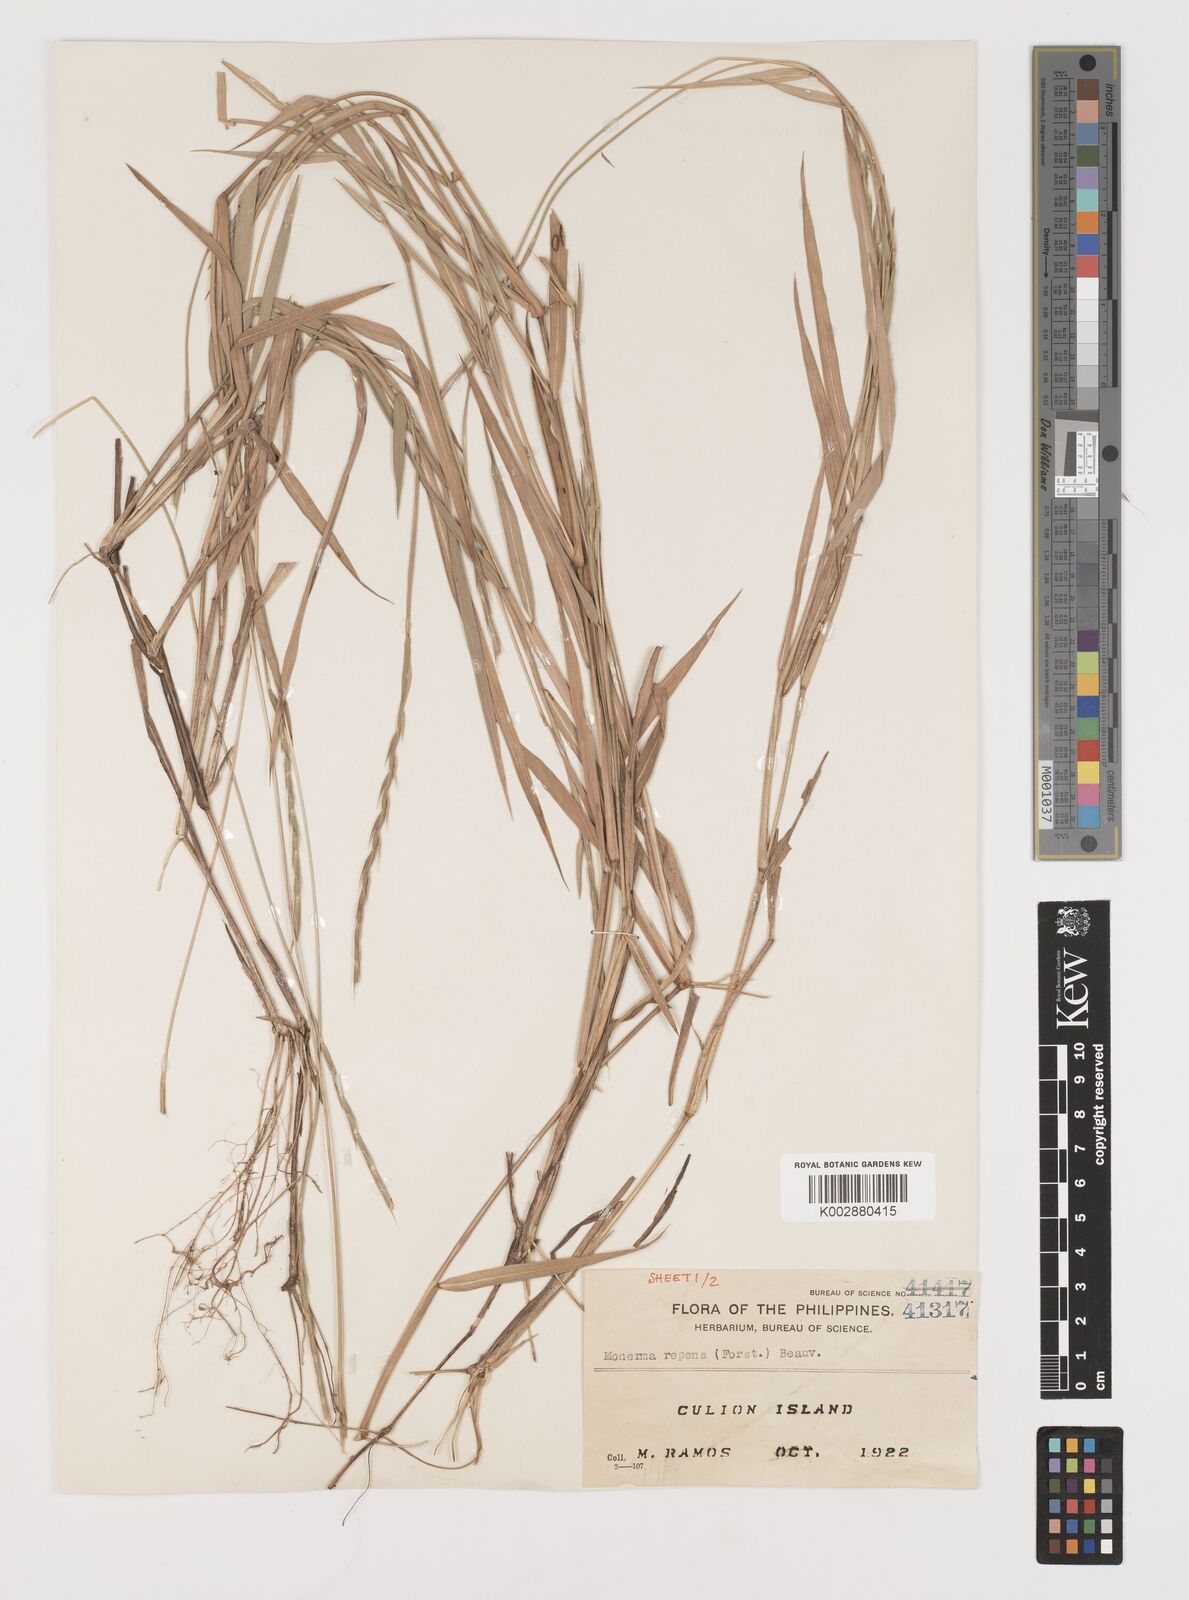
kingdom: Plantae
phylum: Tracheophyta
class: Liliopsida
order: Poales
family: Poaceae
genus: Lepturus
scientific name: Lepturus repens
